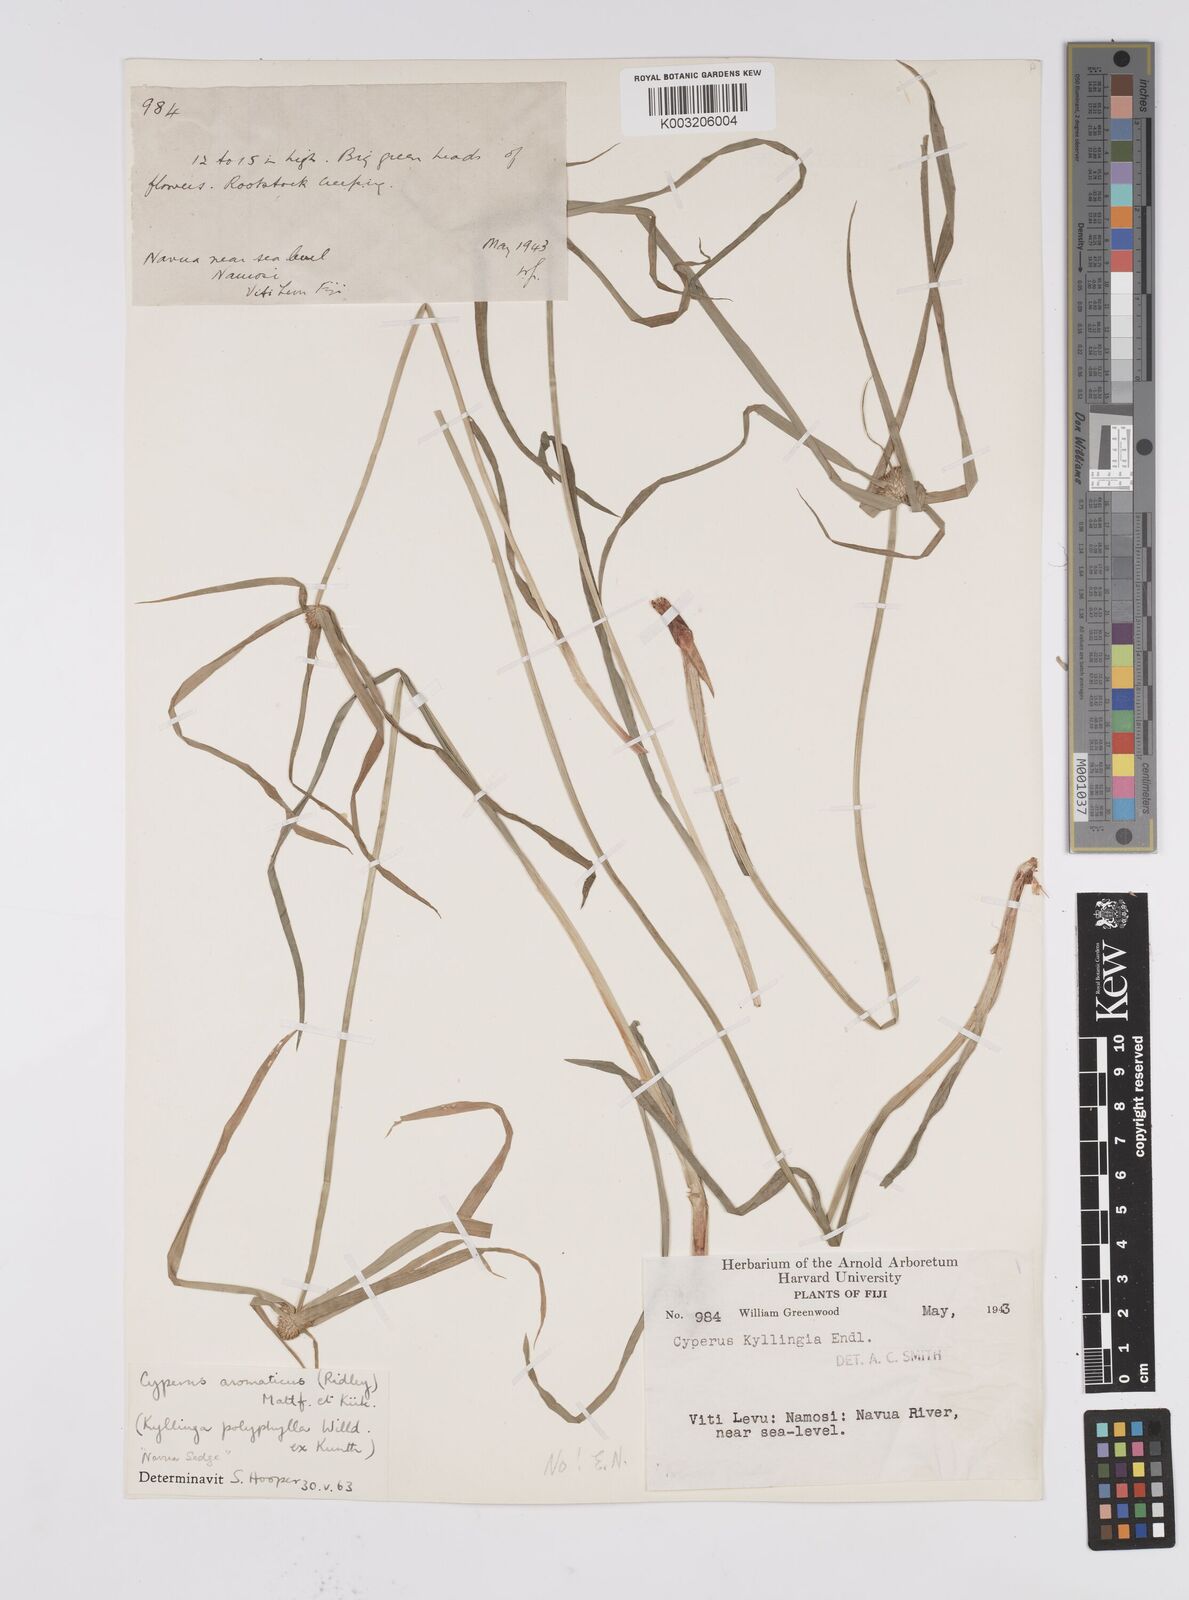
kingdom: Plantae
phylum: Tracheophyta
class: Liliopsida
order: Poales
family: Cyperaceae
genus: Cyperus
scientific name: Cyperus bulbosus
